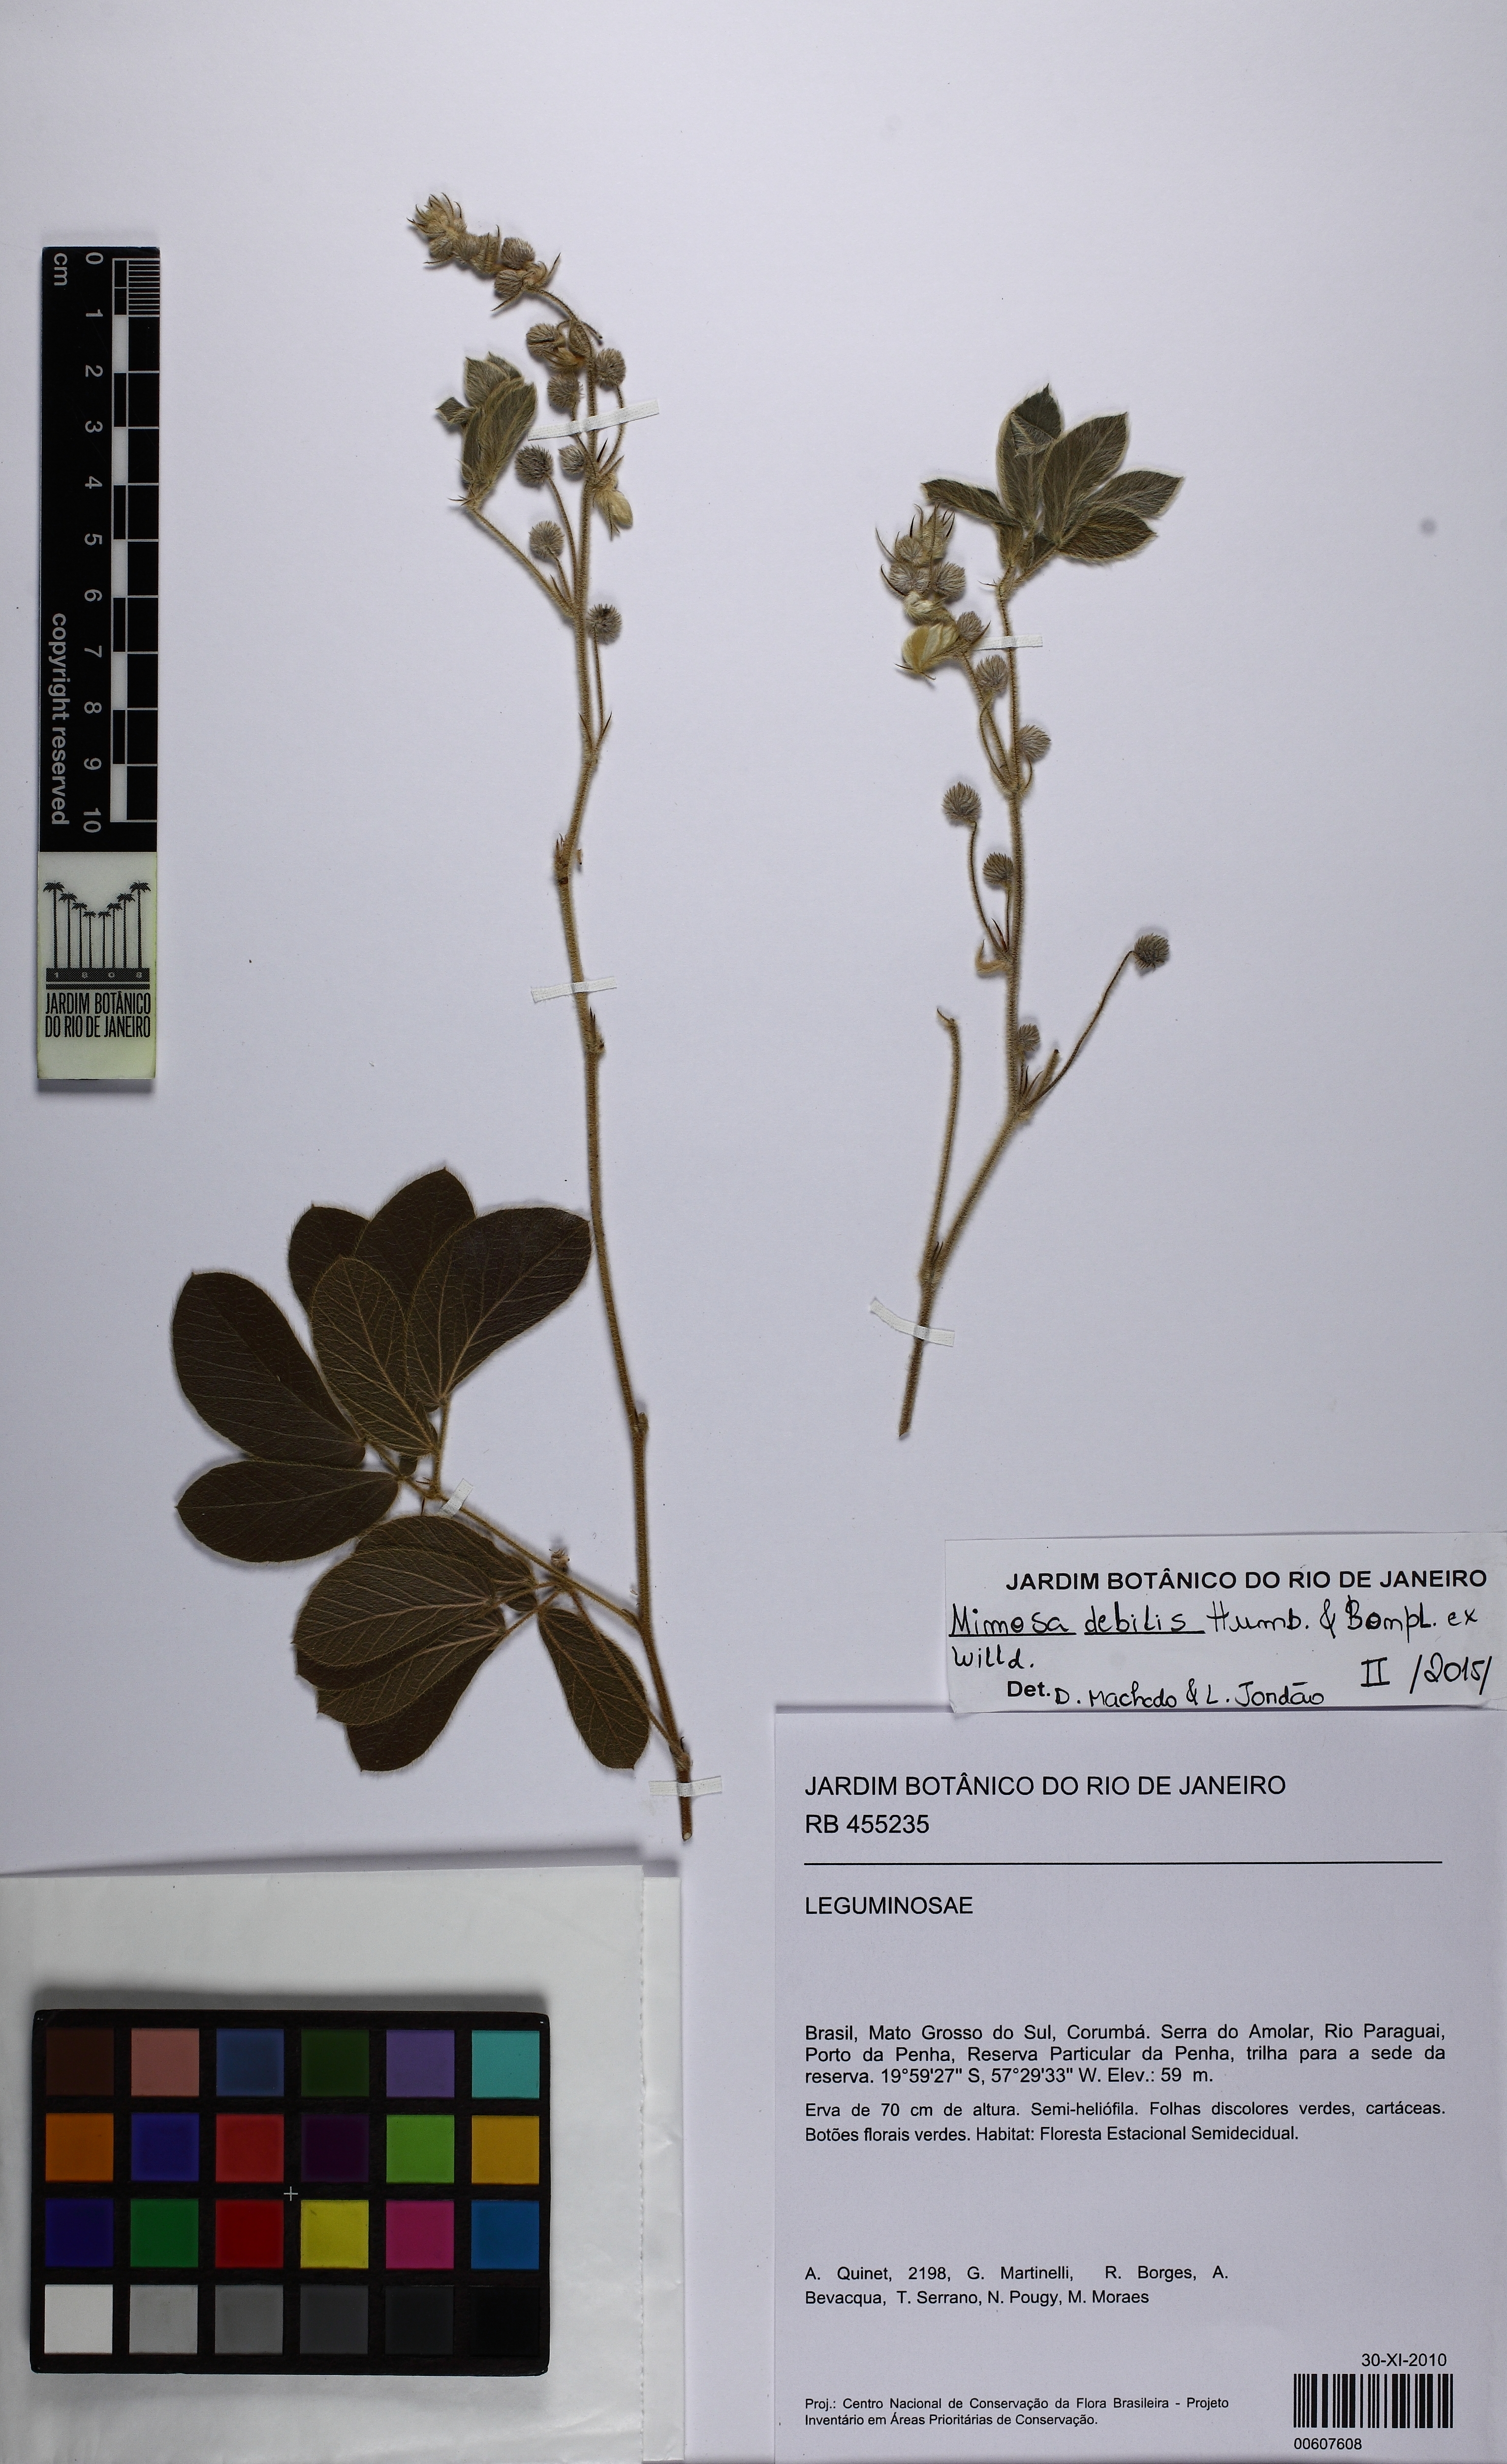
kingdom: Plantae
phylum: Tracheophyta
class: Magnoliopsida
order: Fabales
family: Fabaceae
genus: Mimosa
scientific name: Mimosa debilis
